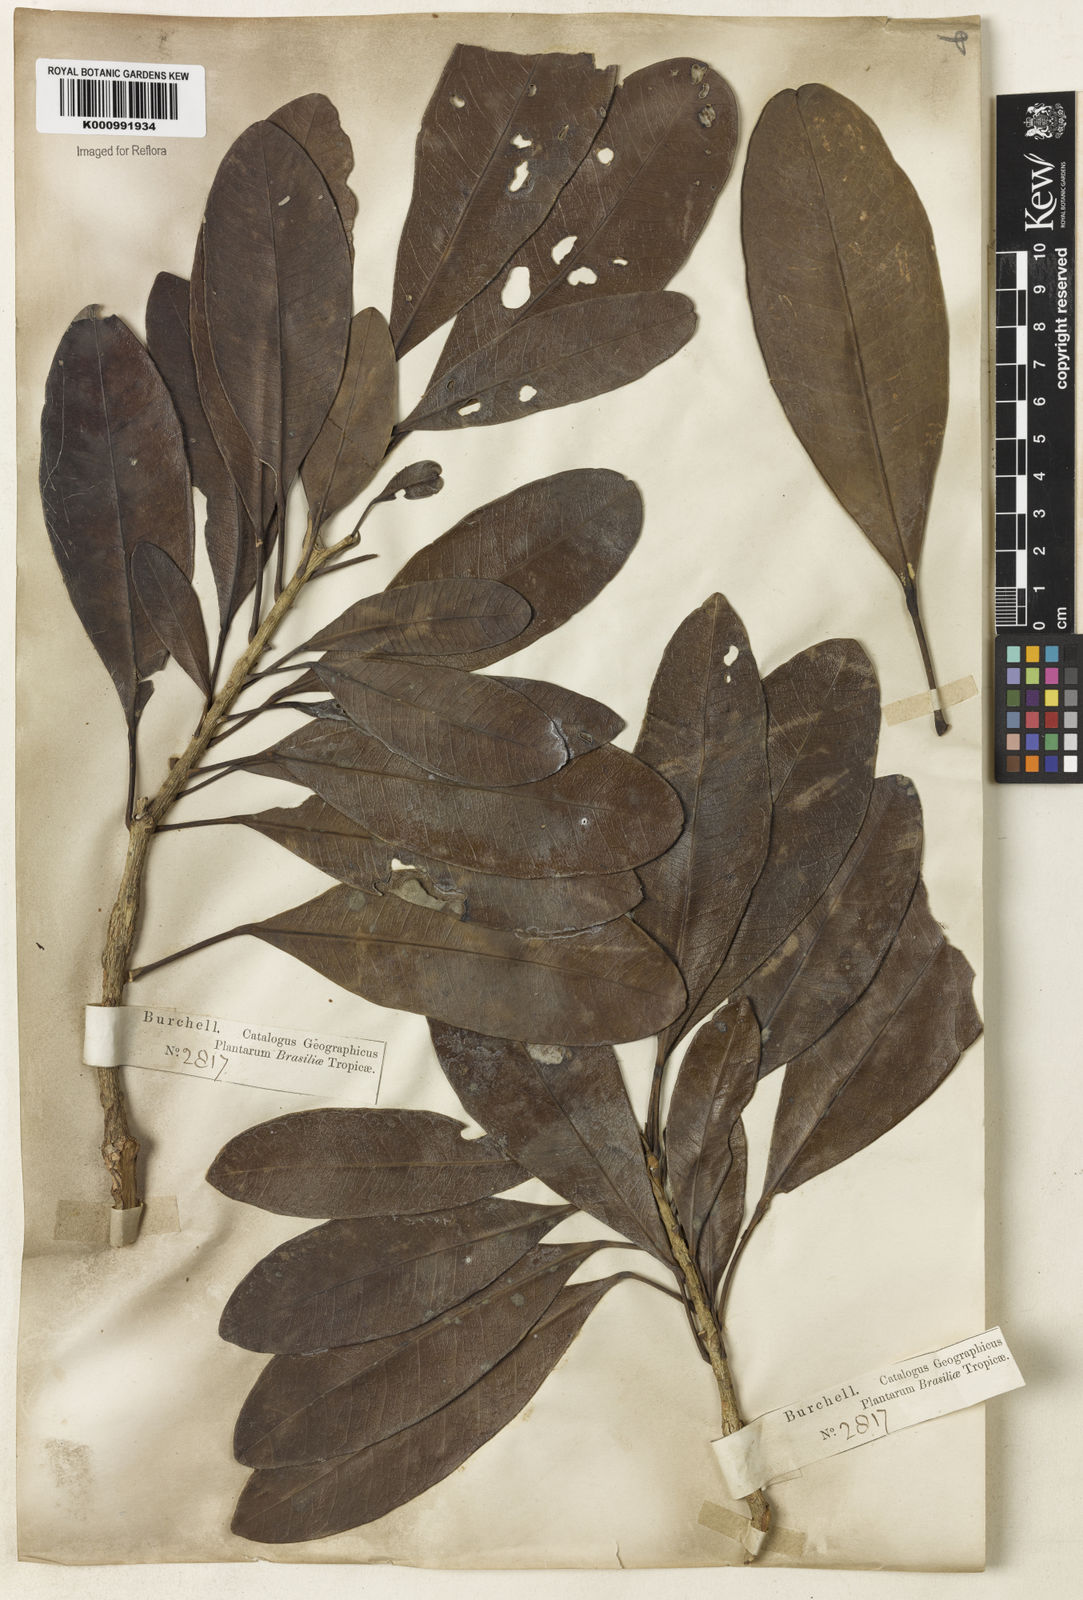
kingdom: Plantae
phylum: Tracheophyta
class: Magnoliopsida
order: Lamiales
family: Bignoniaceae
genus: Tabebuia
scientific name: Tabebuia obtusifolia
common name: Guadeloupe trumpet-tree
